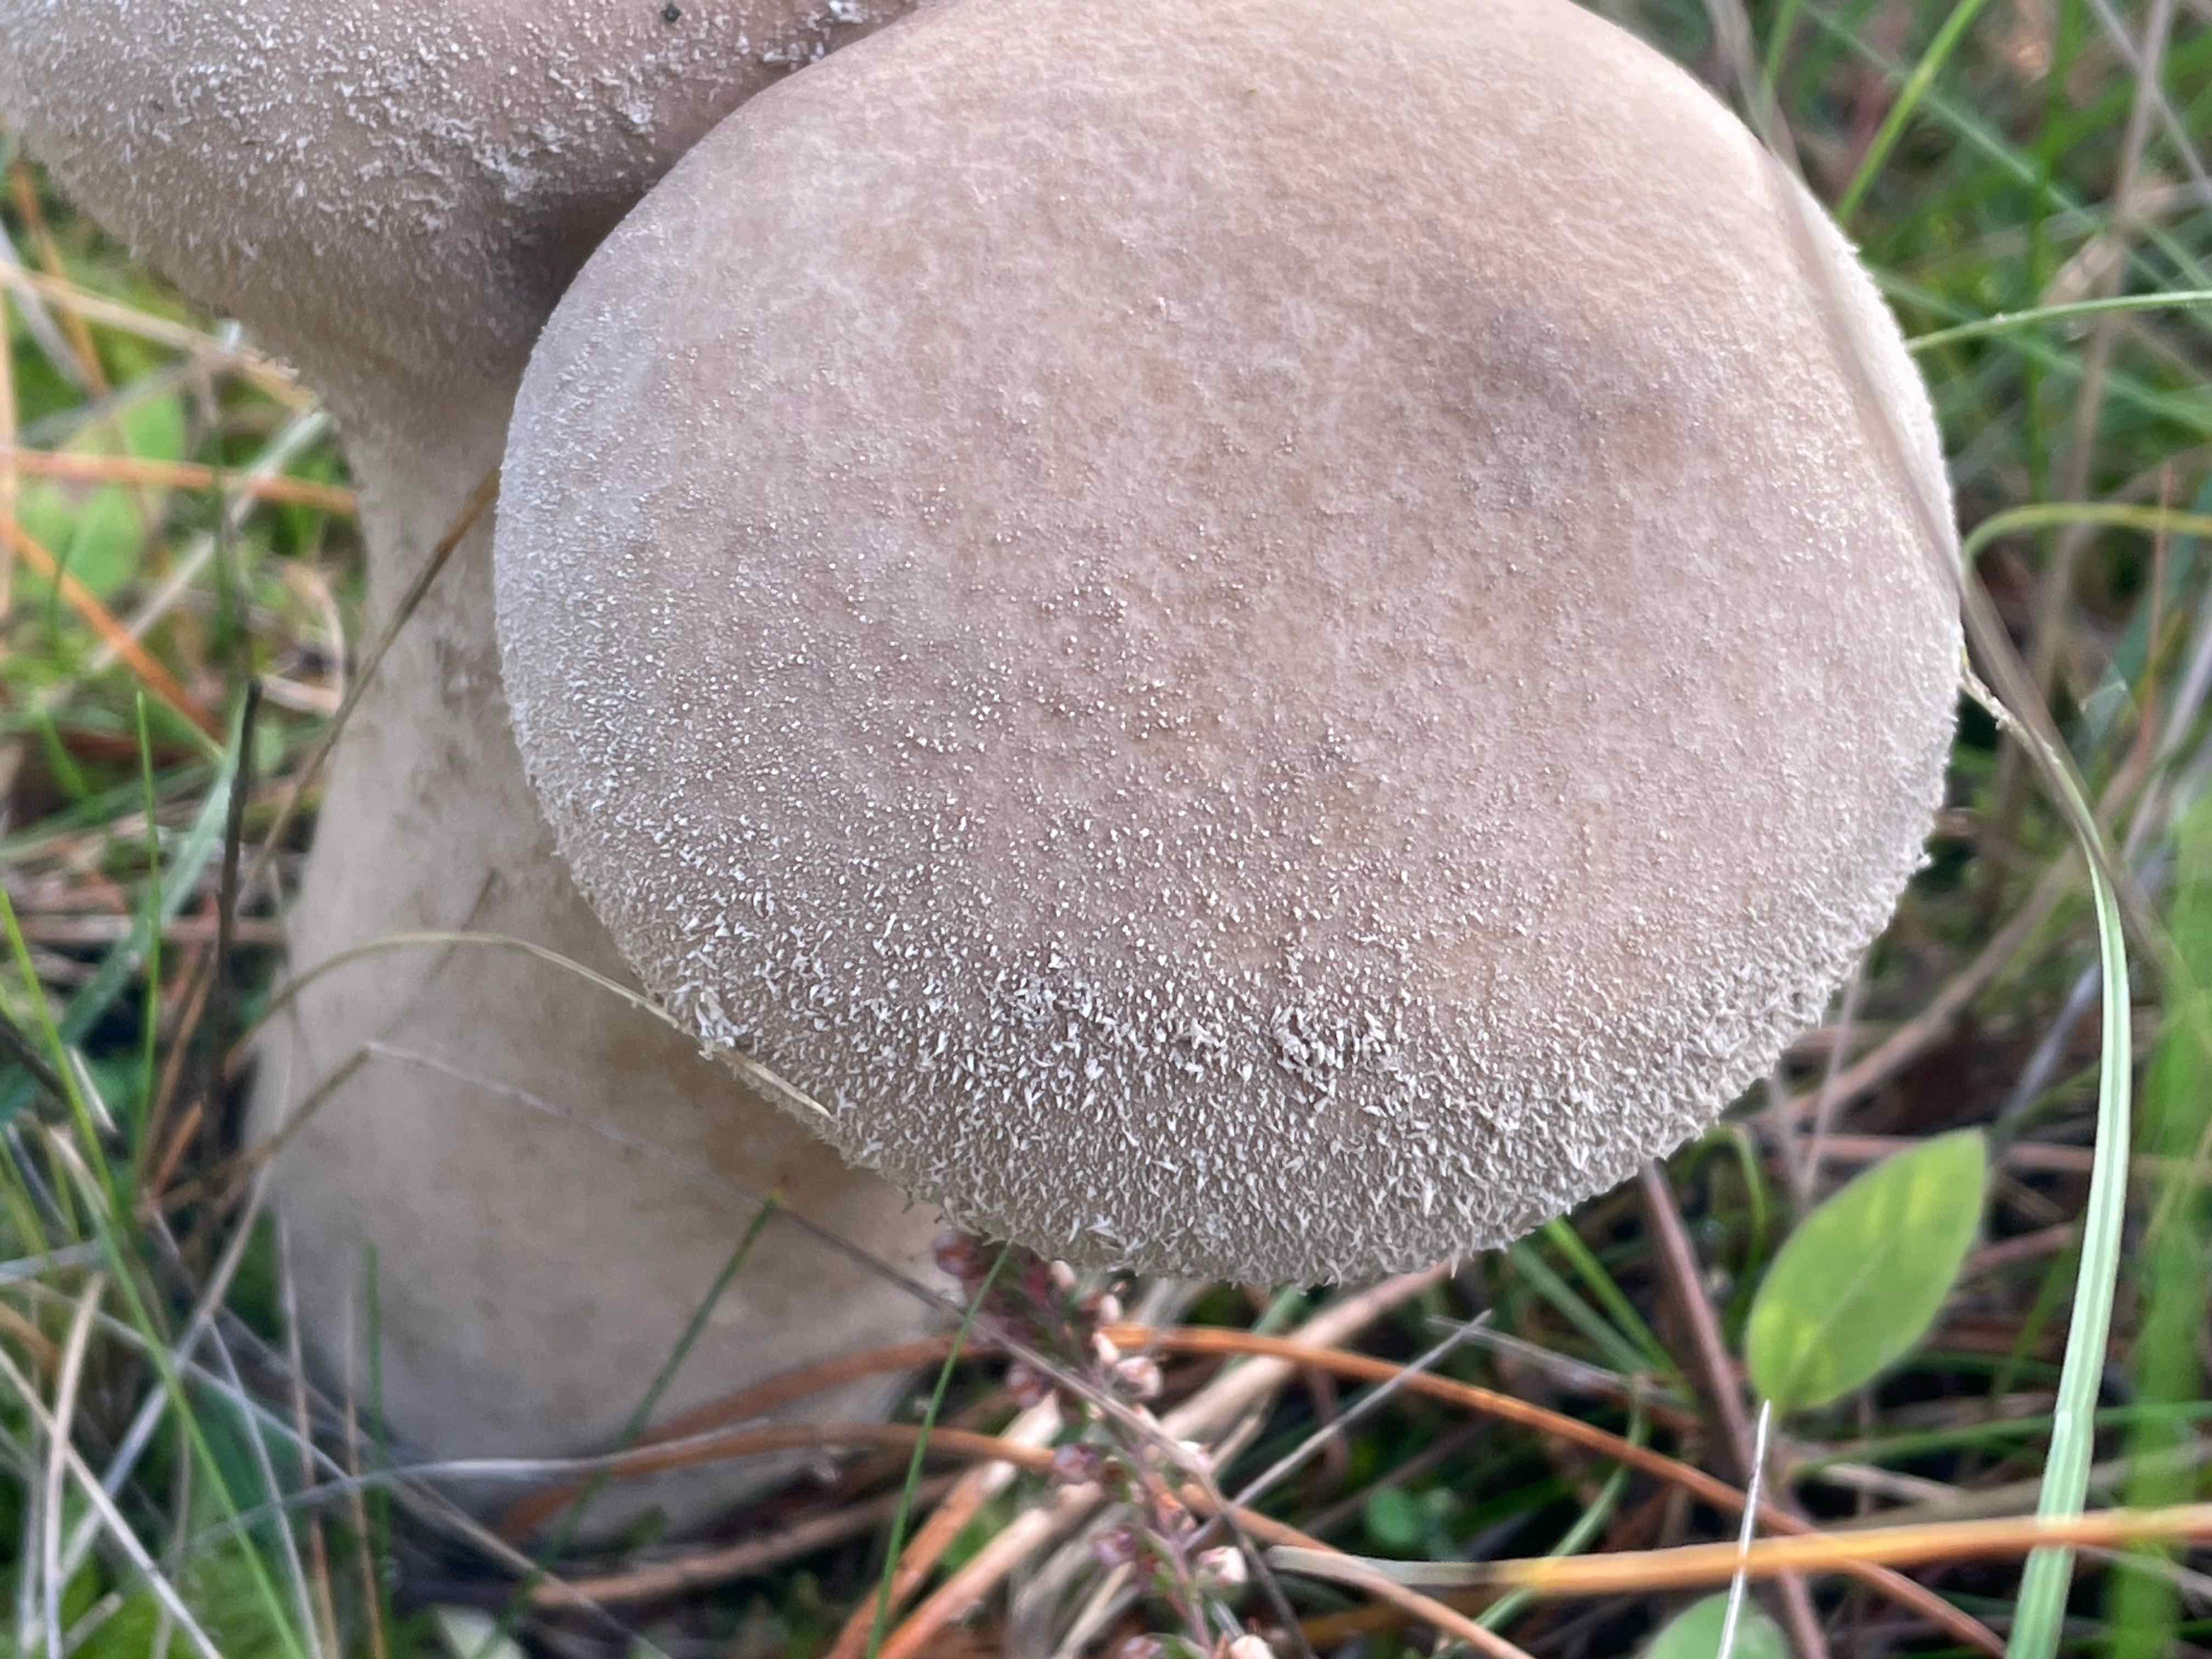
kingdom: Fungi
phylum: Basidiomycota
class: Agaricomycetes
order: Agaricales
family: Lycoperdaceae
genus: Lycoperdon
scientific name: Lycoperdon excipuliforme
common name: højstokket støvbold
